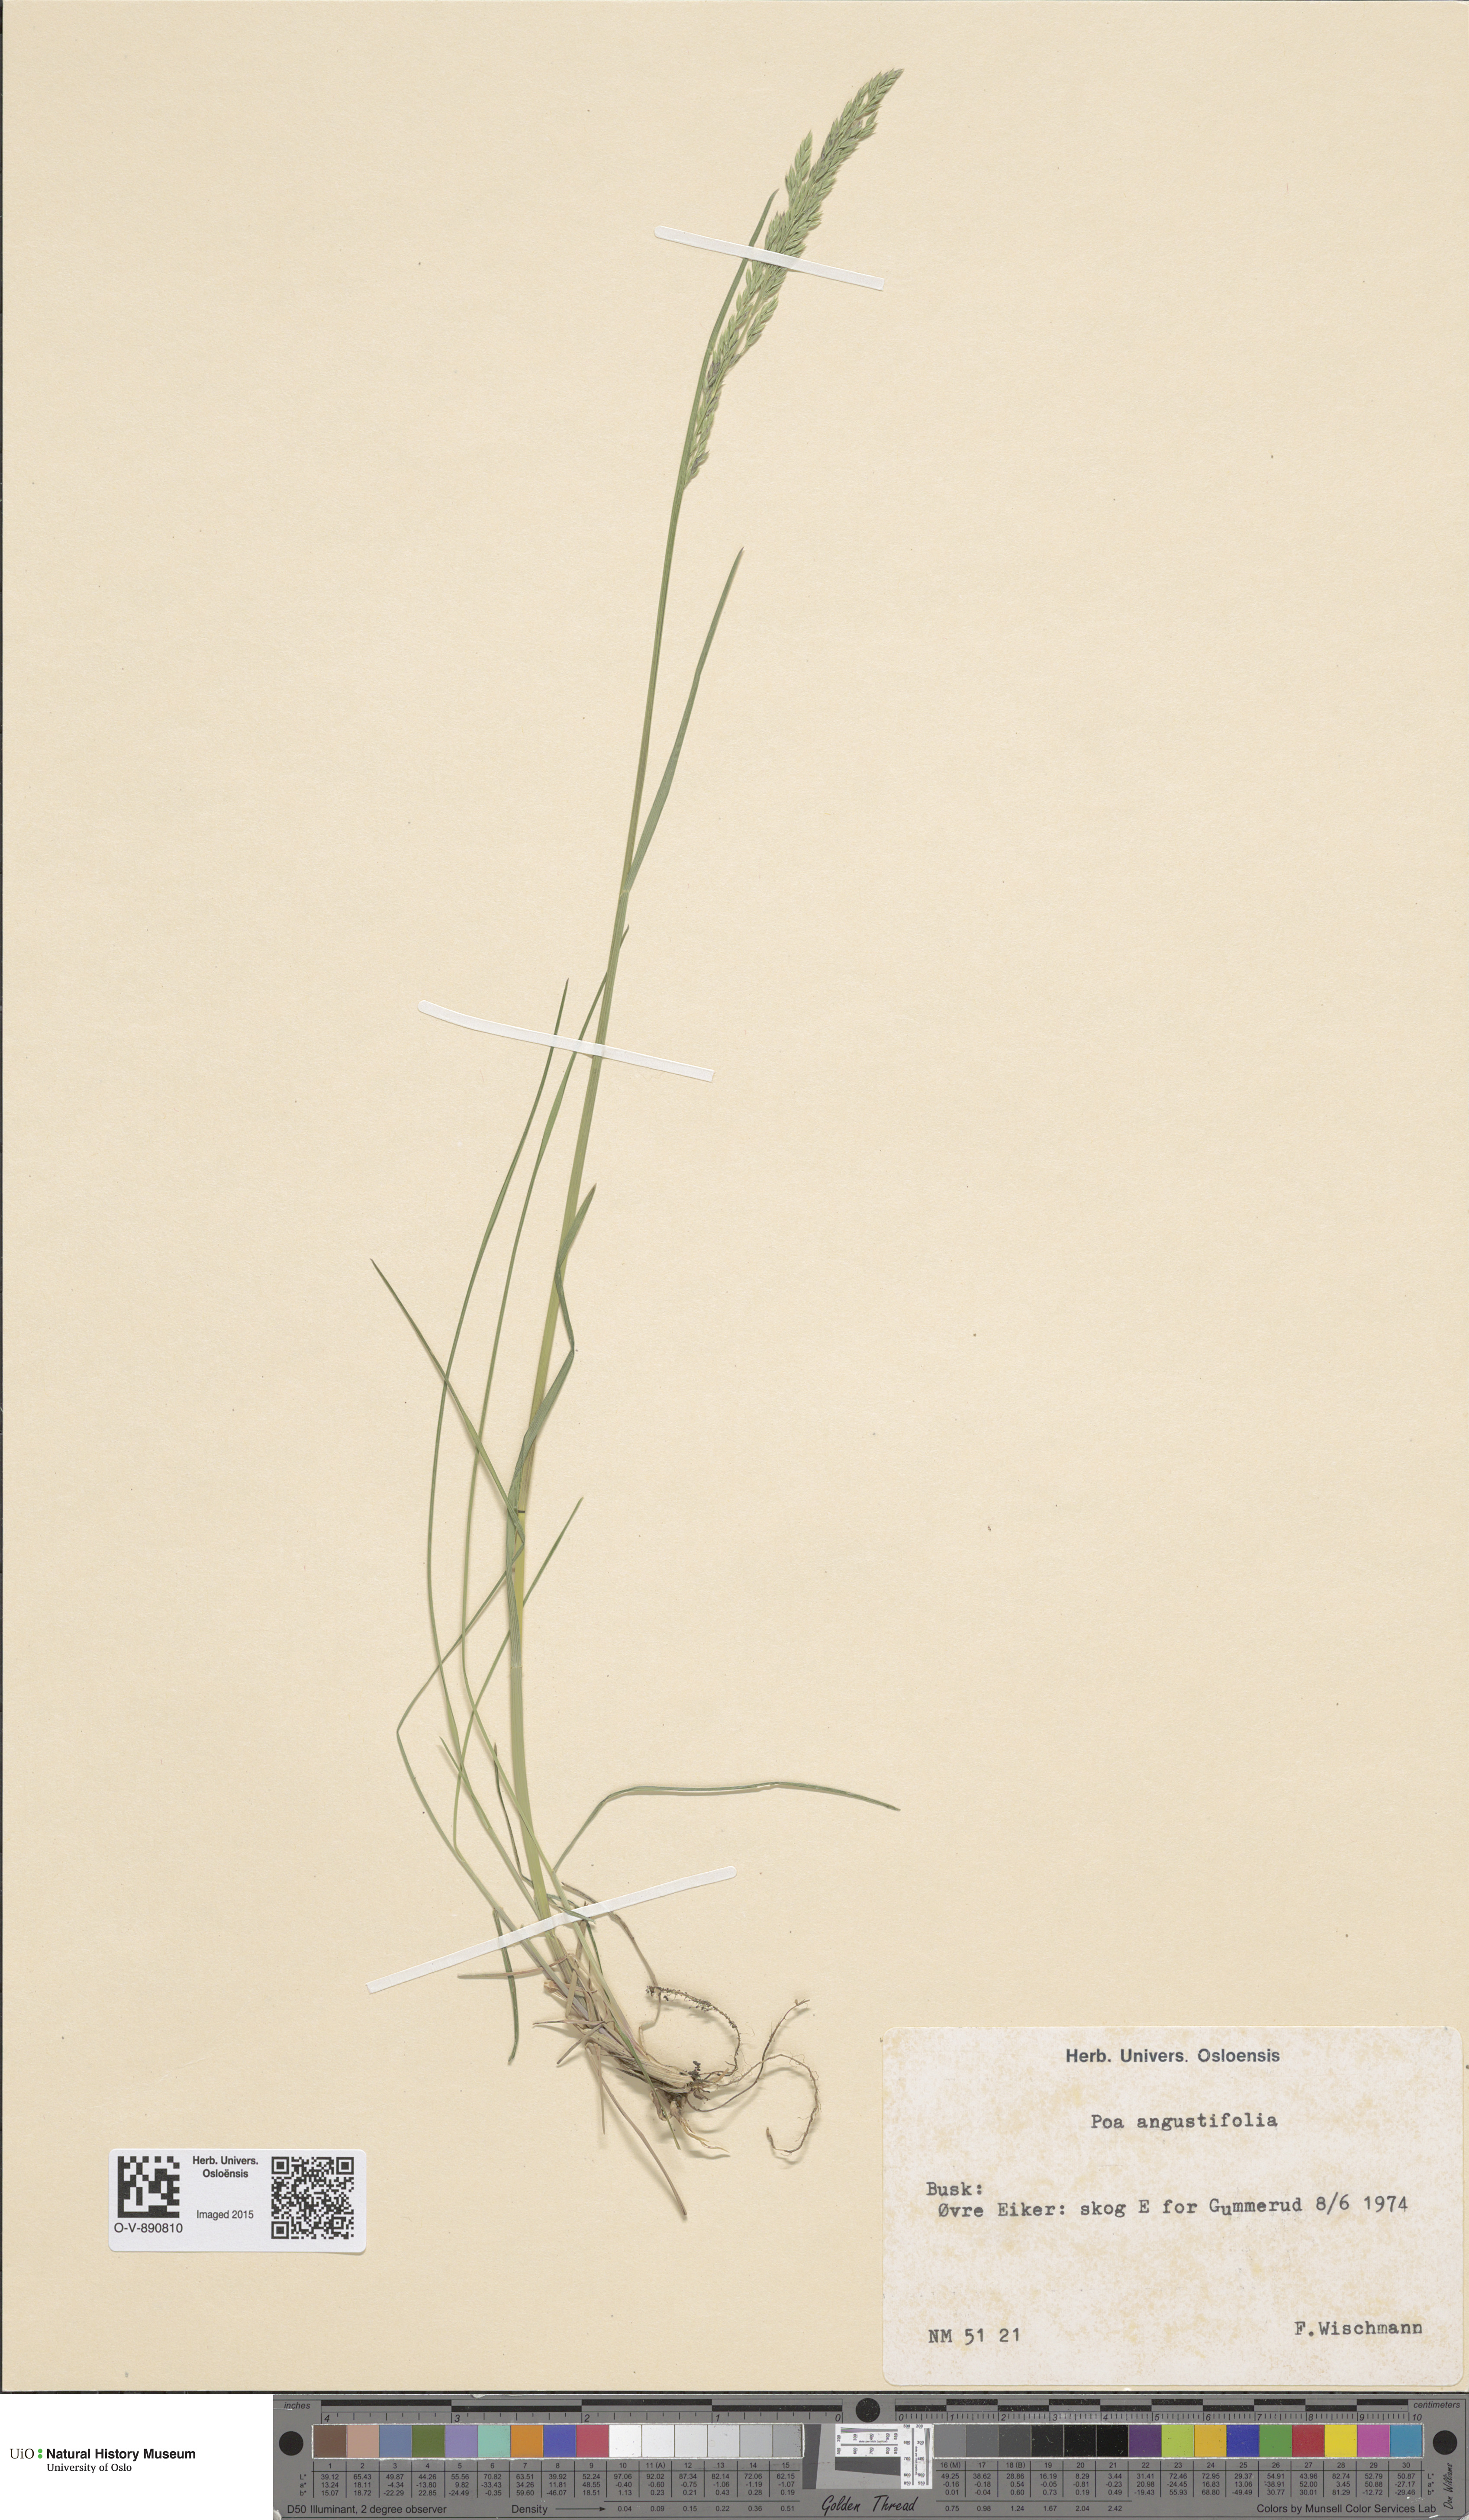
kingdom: Plantae
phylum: Tracheophyta
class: Liliopsida
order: Poales
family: Poaceae
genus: Poa
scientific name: Poa angustifolia
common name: Narrow-leaved meadow-grass
